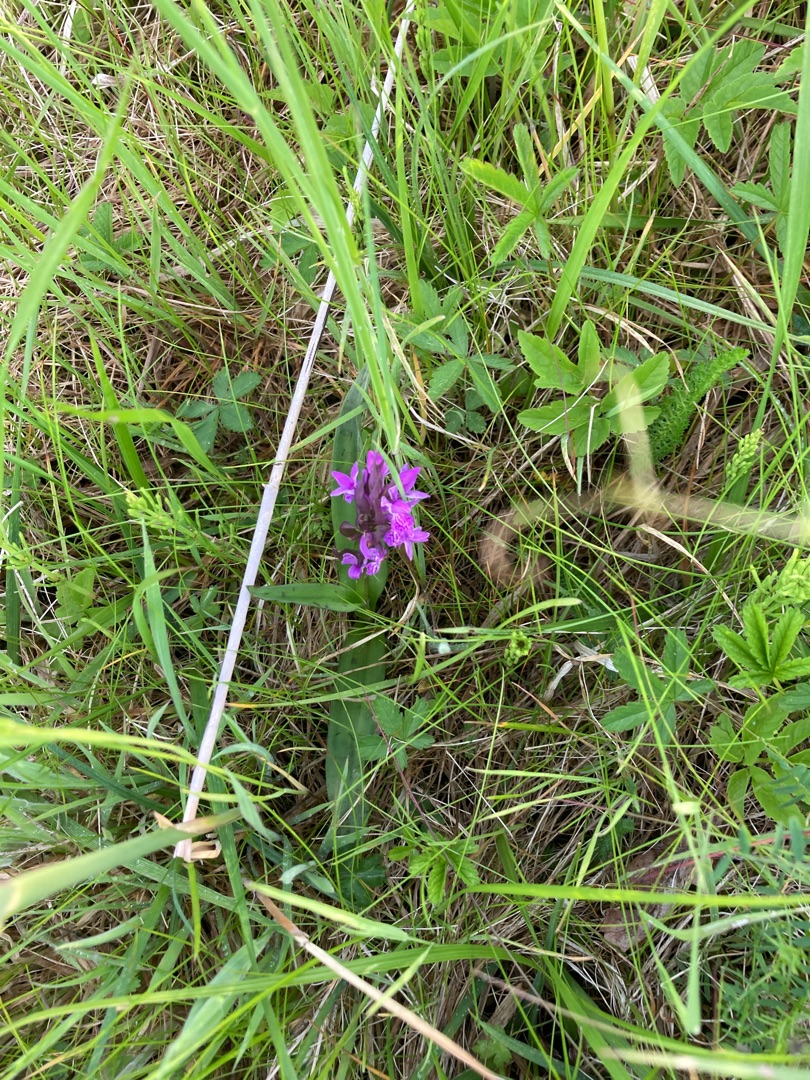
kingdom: Plantae
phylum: Tracheophyta
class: Liliopsida
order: Asparagales
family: Orchidaceae
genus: Dactylorhiza
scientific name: Dactylorhiza majalis
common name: Maj-gøgeurt
